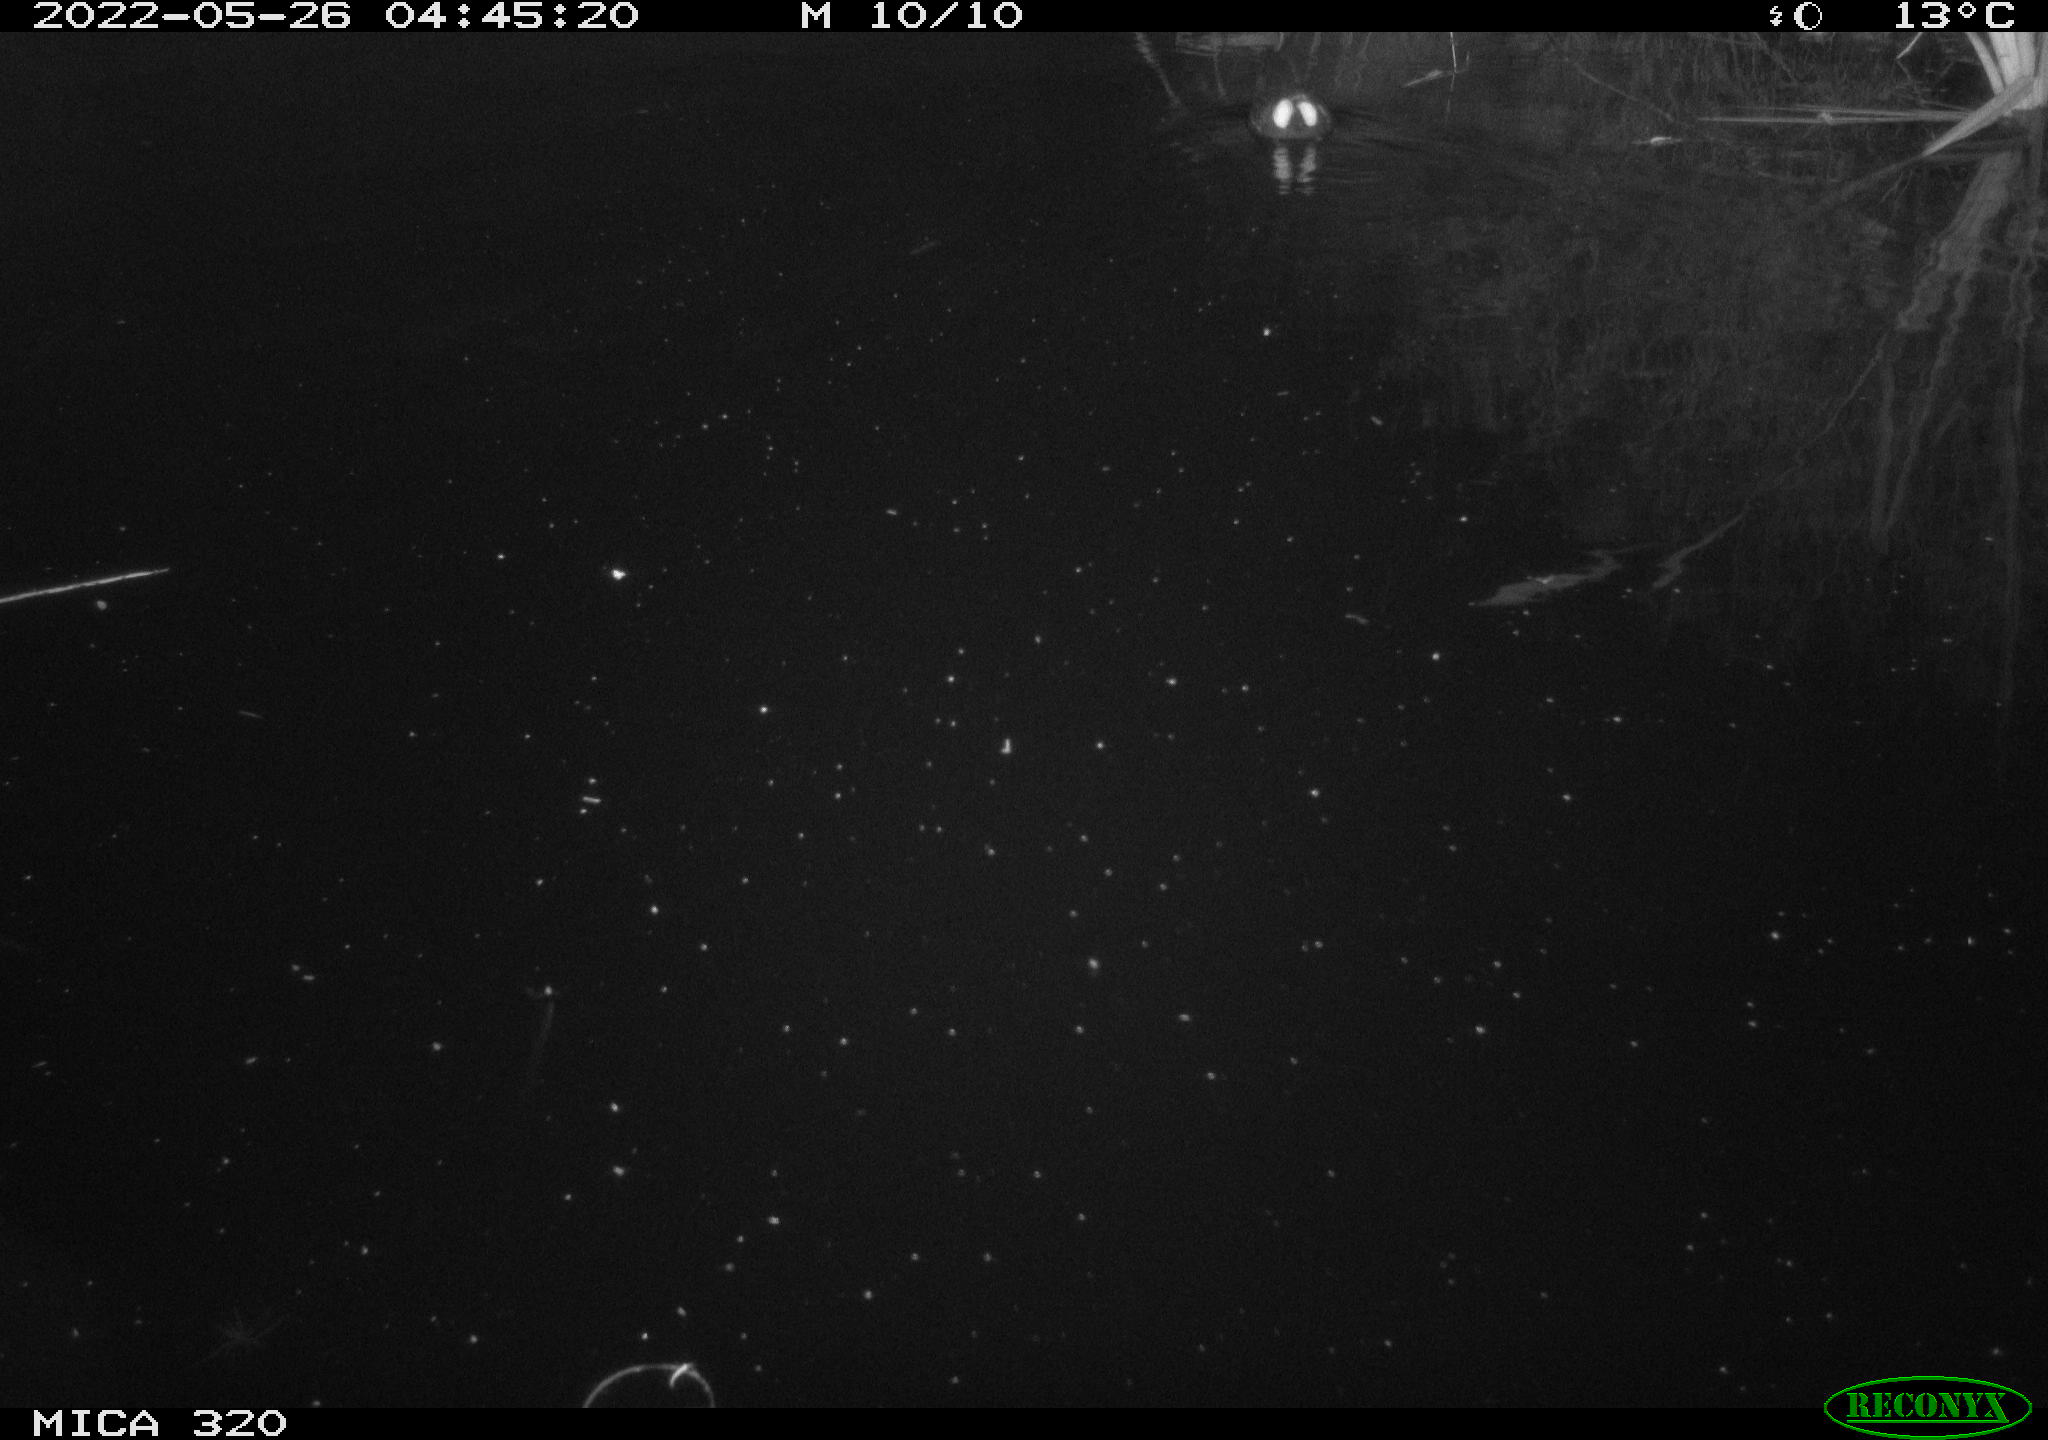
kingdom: Animalia
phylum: Chordata
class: Aves
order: Gruiformes
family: Rallidae
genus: Gallinula
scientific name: Gallinula chloropus
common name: Common moorhen
